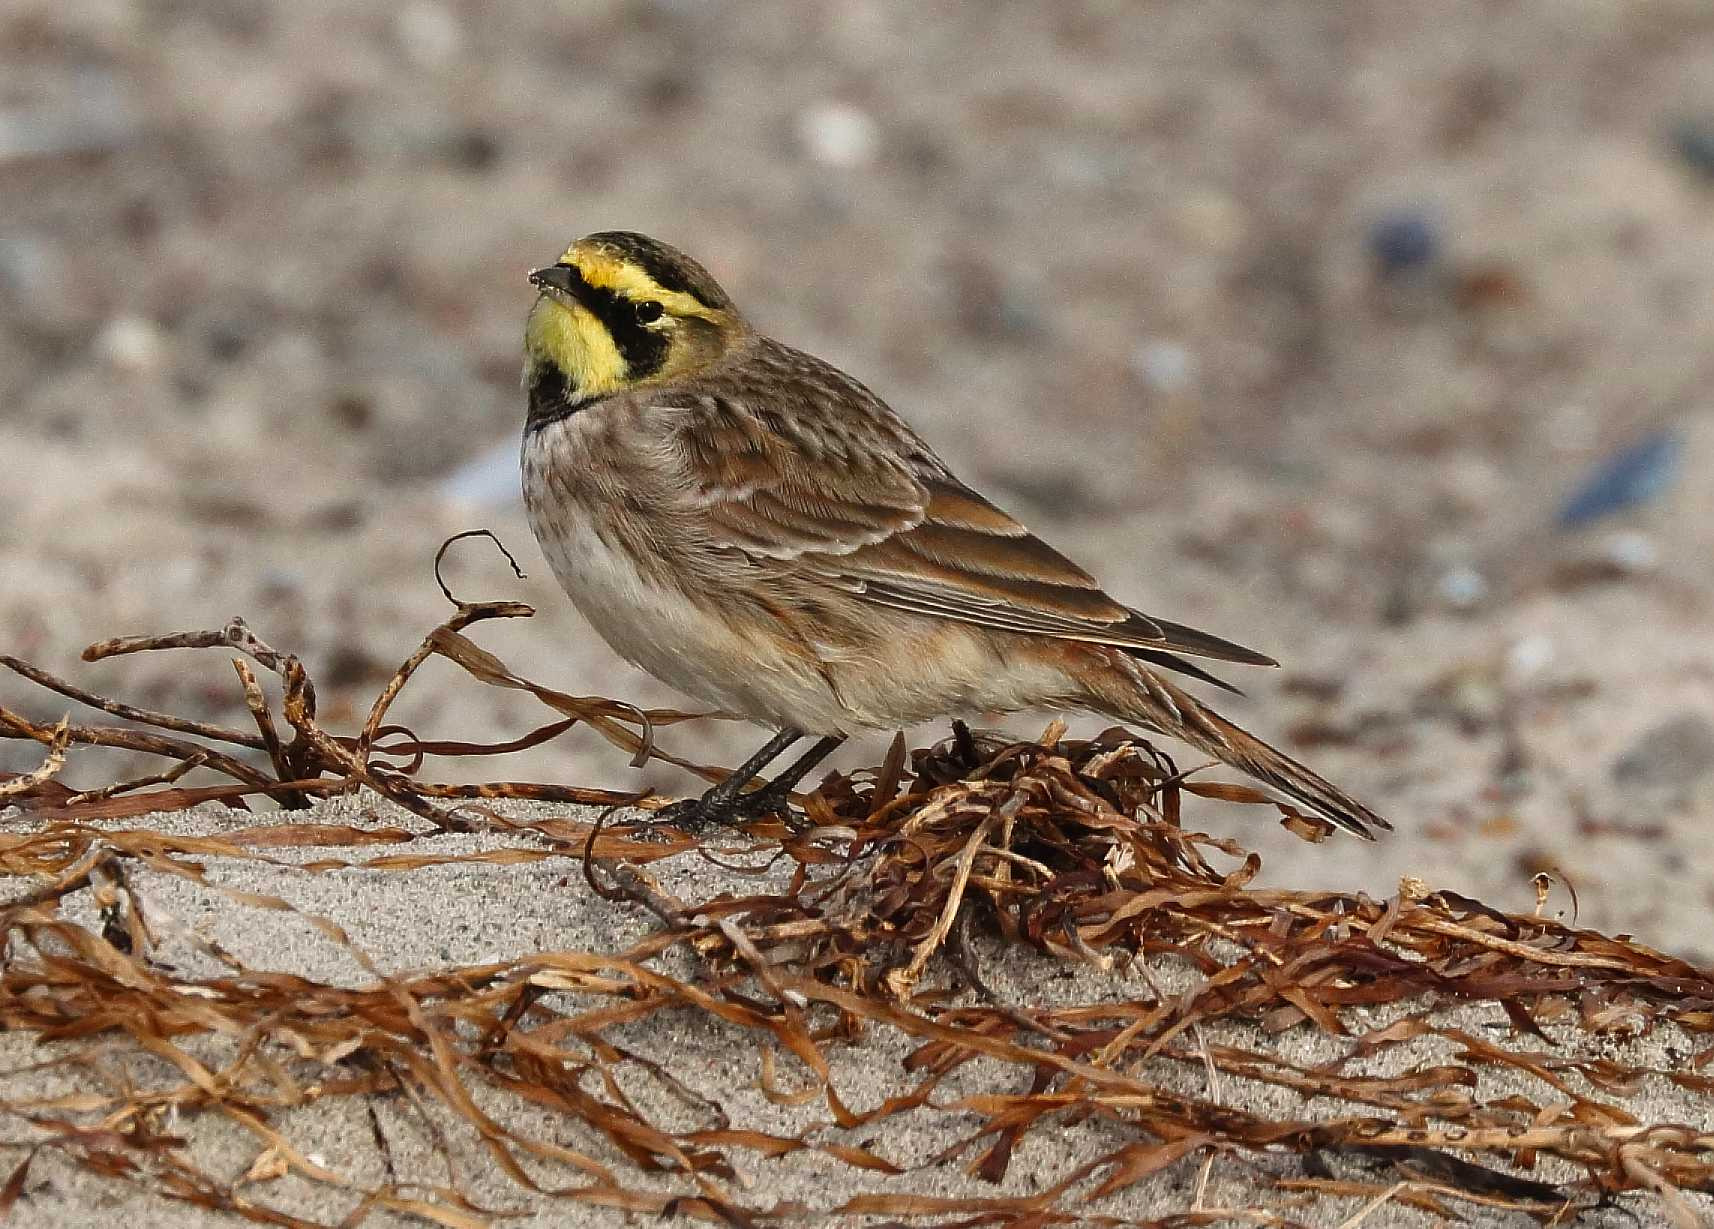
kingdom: Animalia
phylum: Chordata
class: Aves
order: Passeriformes
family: Alaudidae
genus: Eremophila
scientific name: Eremophila alpestris
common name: Bjerglærke
